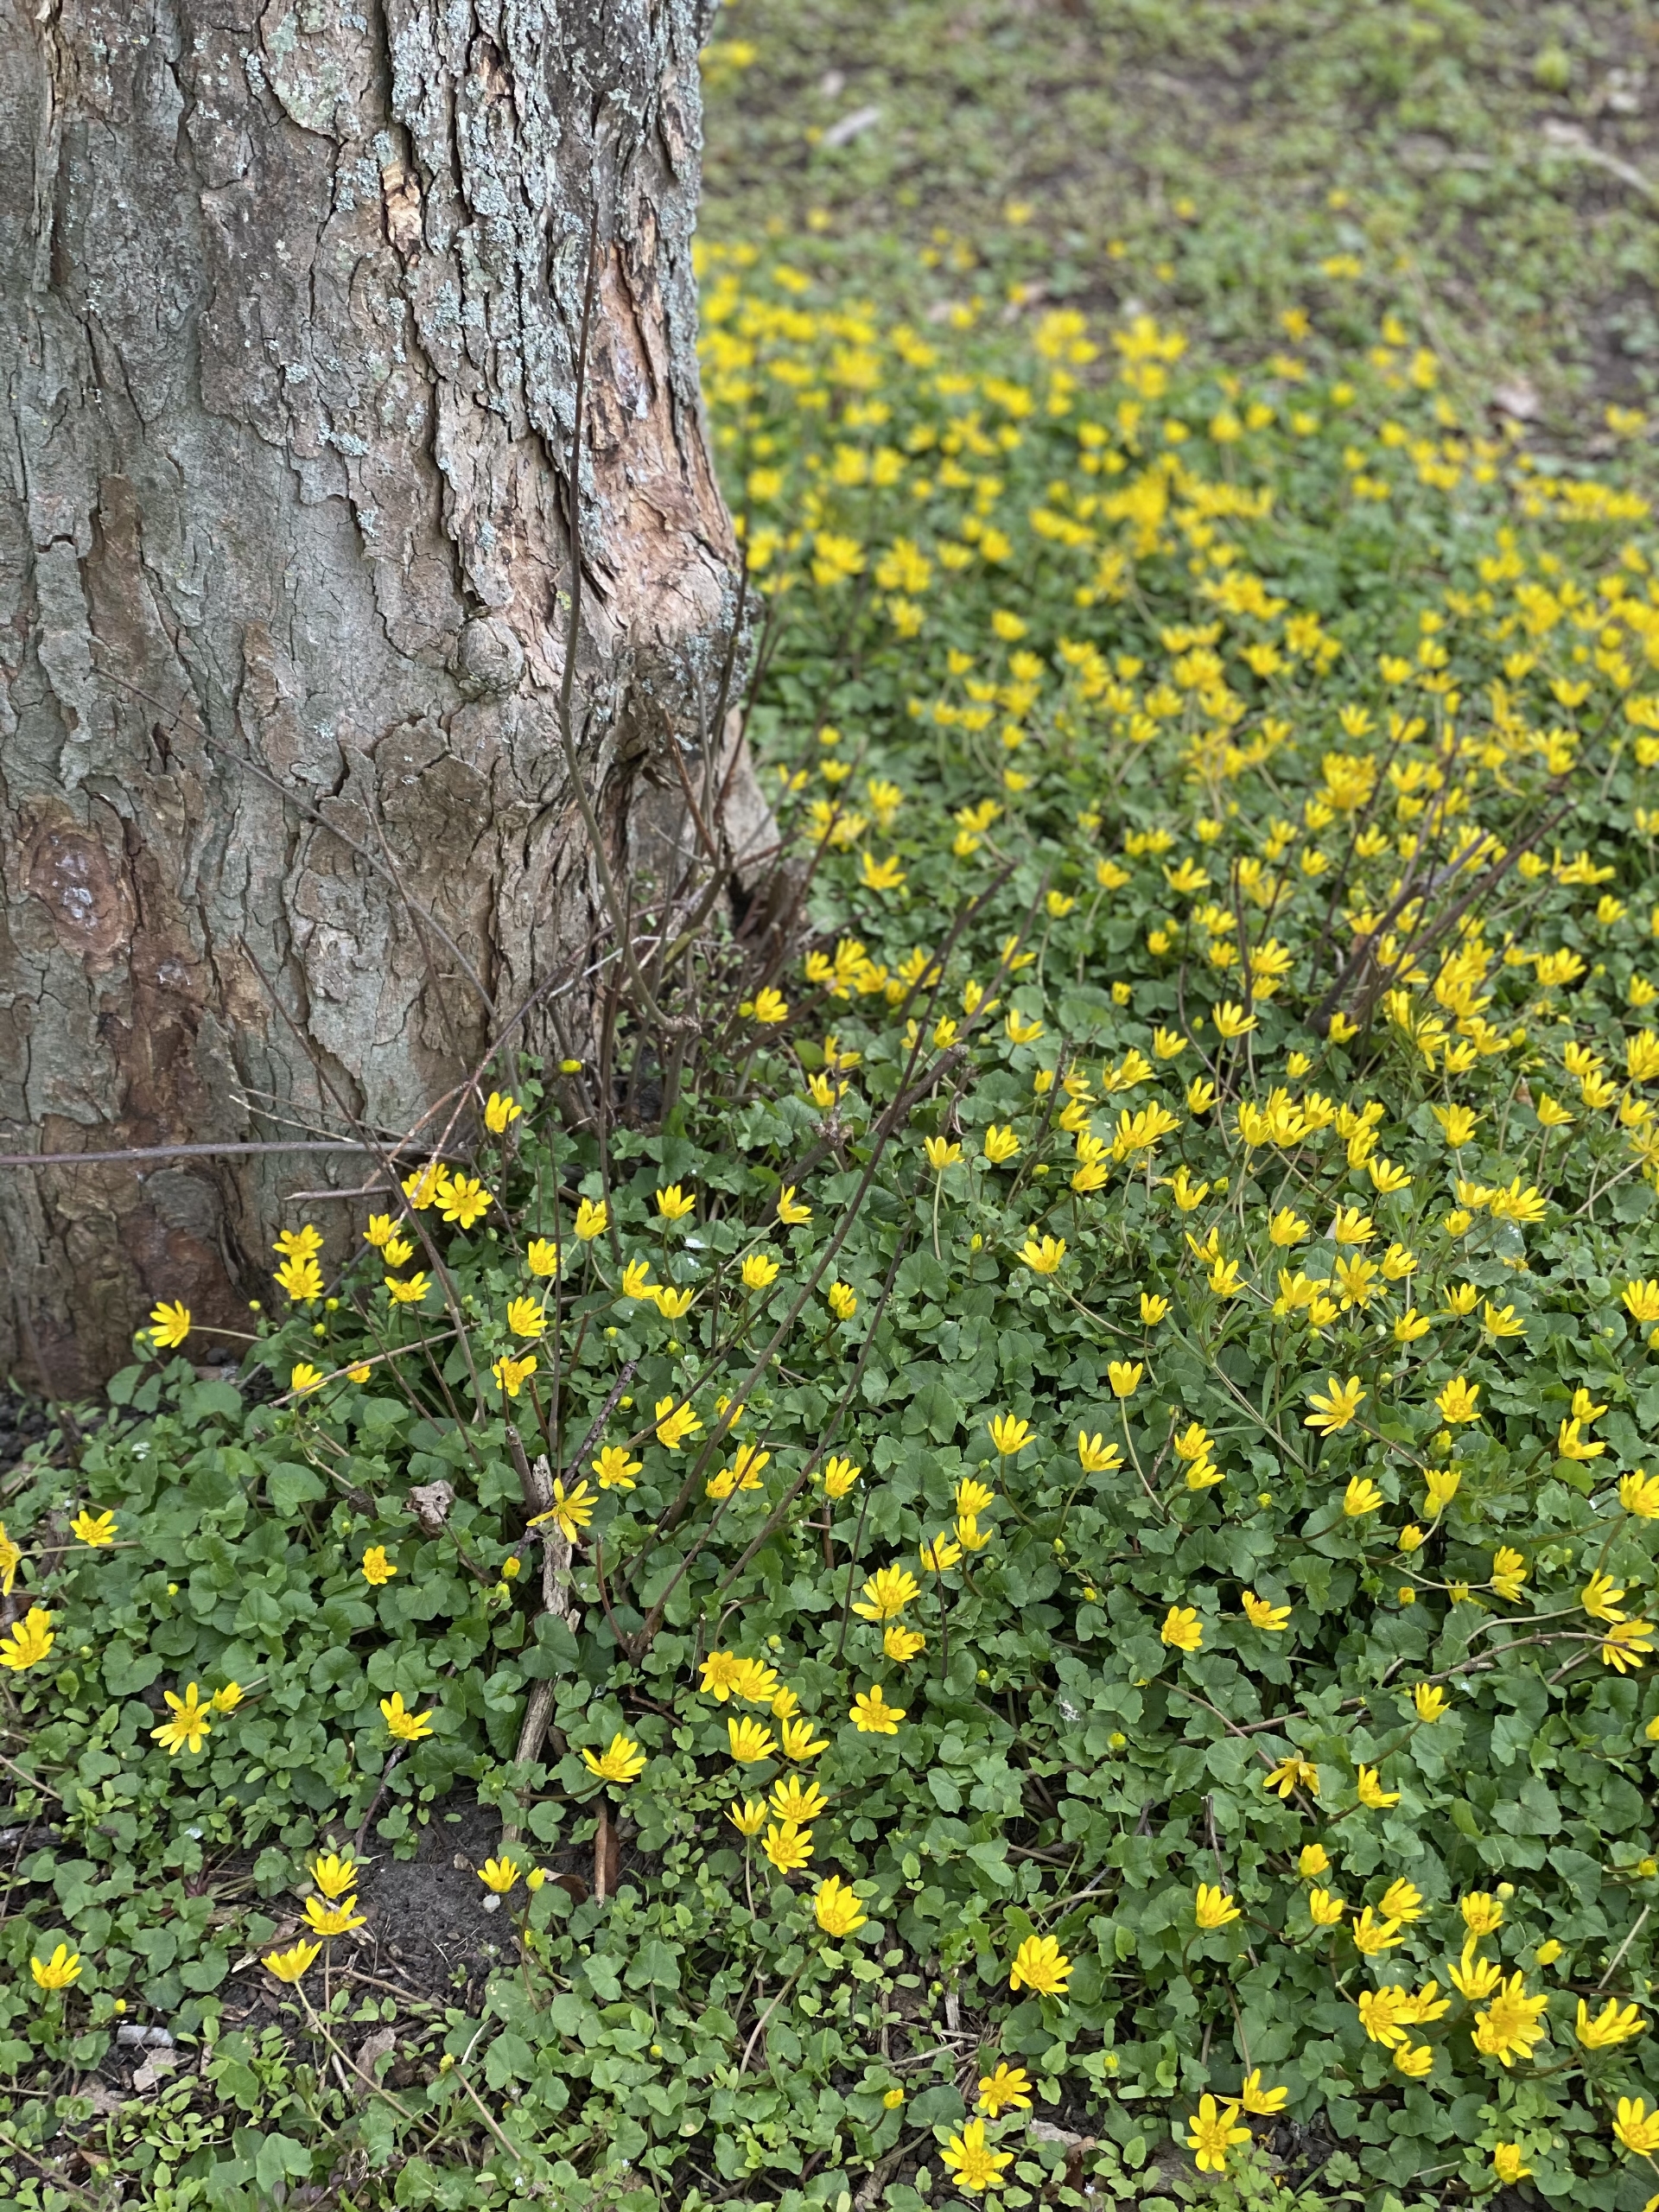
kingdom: Plantae
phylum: Tracheophyta
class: Magnoliopsida
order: Ranunculales
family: Ranunculaceae
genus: Ficaria
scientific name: Ficaria verna
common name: Vorterod
